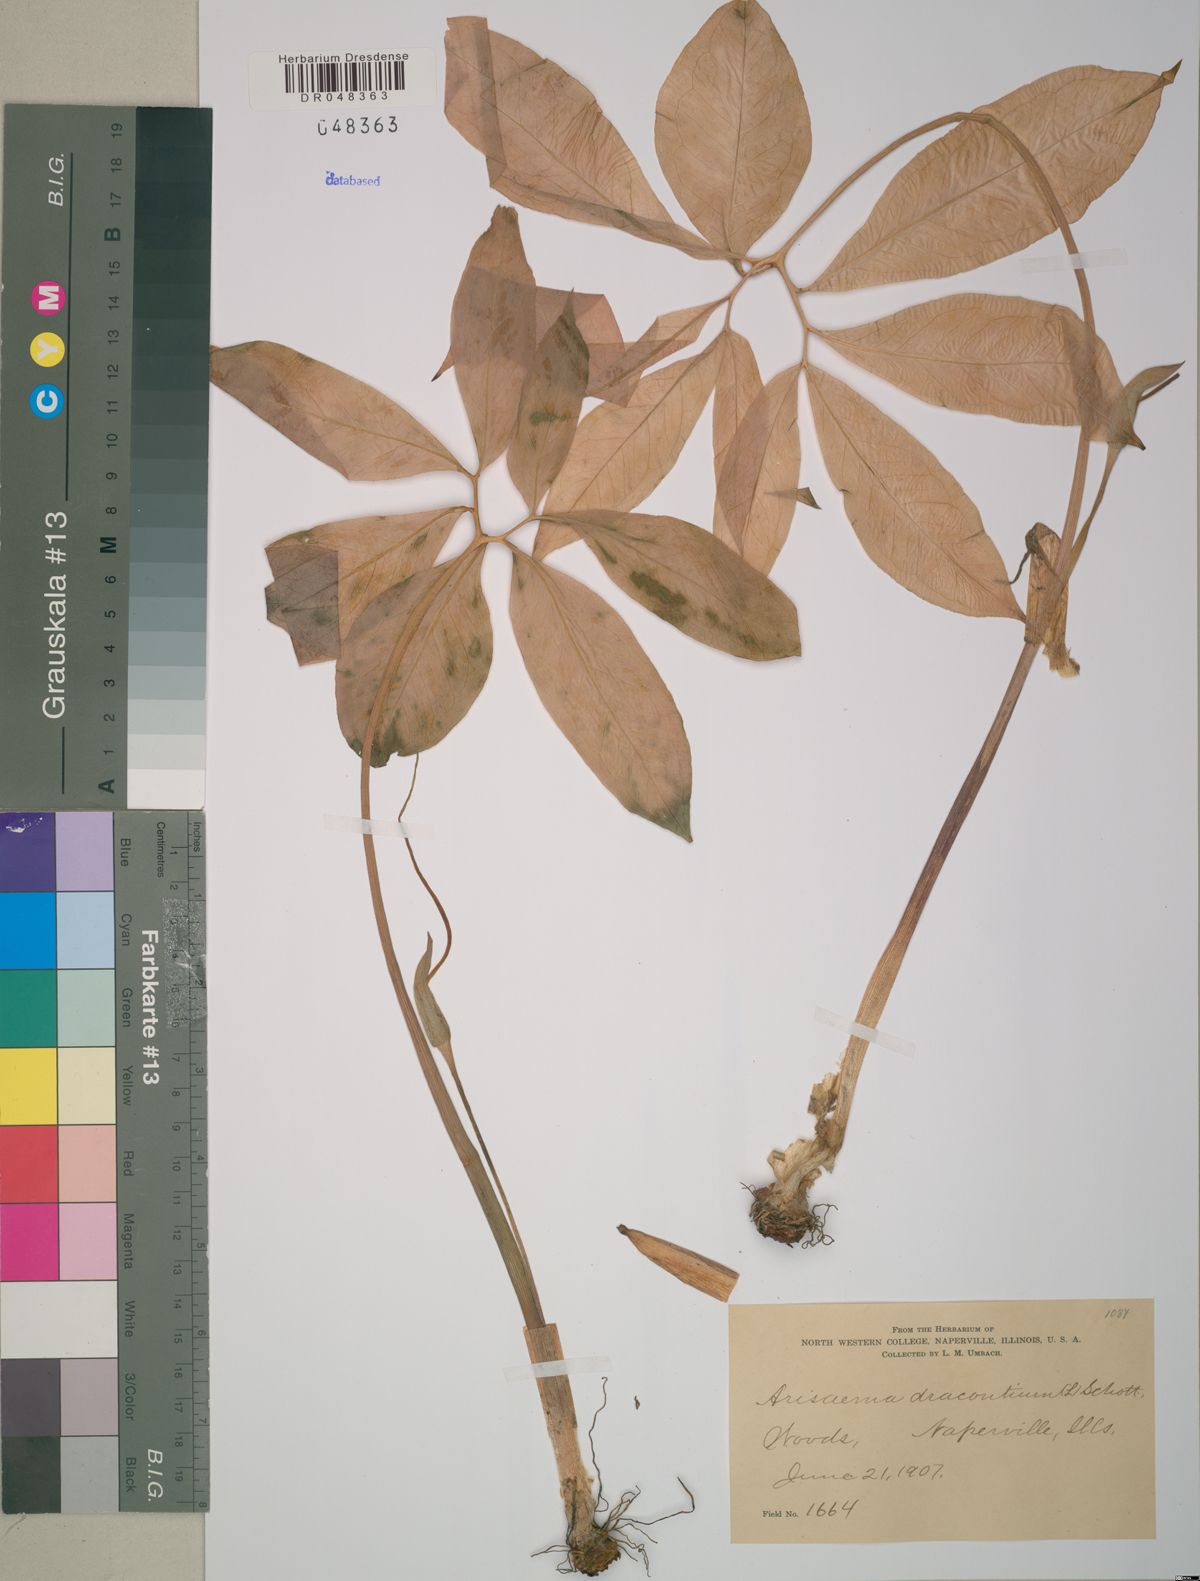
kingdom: Plantae
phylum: Tracheophyta
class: Liliopsida
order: Alismatales
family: Araceae
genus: Arisaema
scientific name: Arisaema dracontium
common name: Dragon-arum
